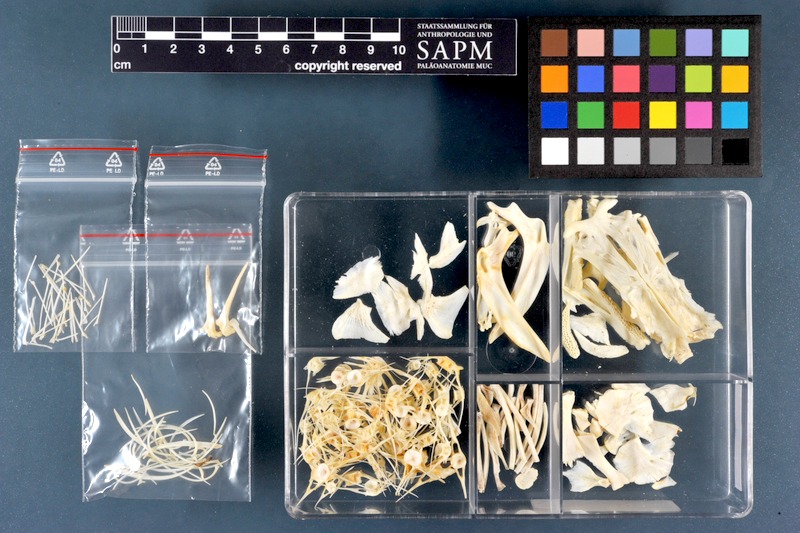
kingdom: Animalia
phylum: Chordata
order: Siluriformes
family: Siluridae
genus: Silurus
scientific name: Silurus triostegus
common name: Mesopotamian catfish
